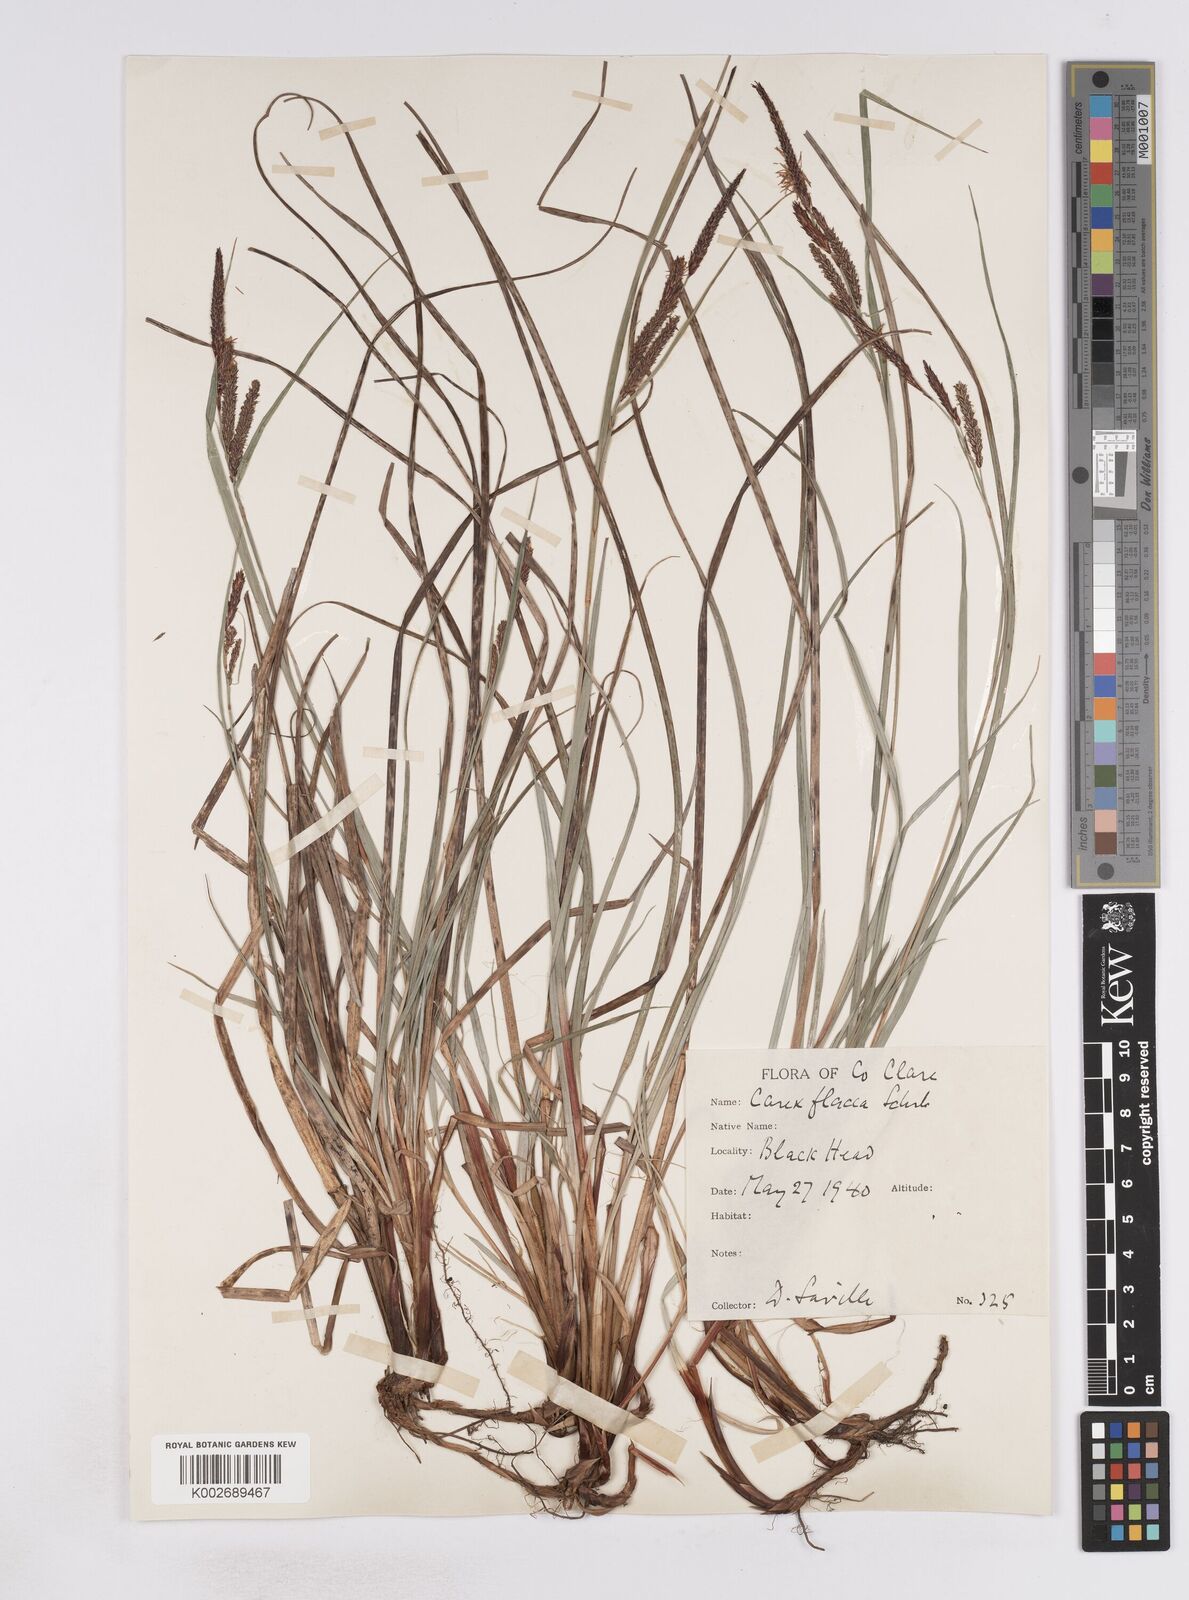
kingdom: Plantae
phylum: Tracheophyta
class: Liliopsida
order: Poales
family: Cyperaceae
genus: Carex
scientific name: Carex flacca
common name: Glaucous sedge
